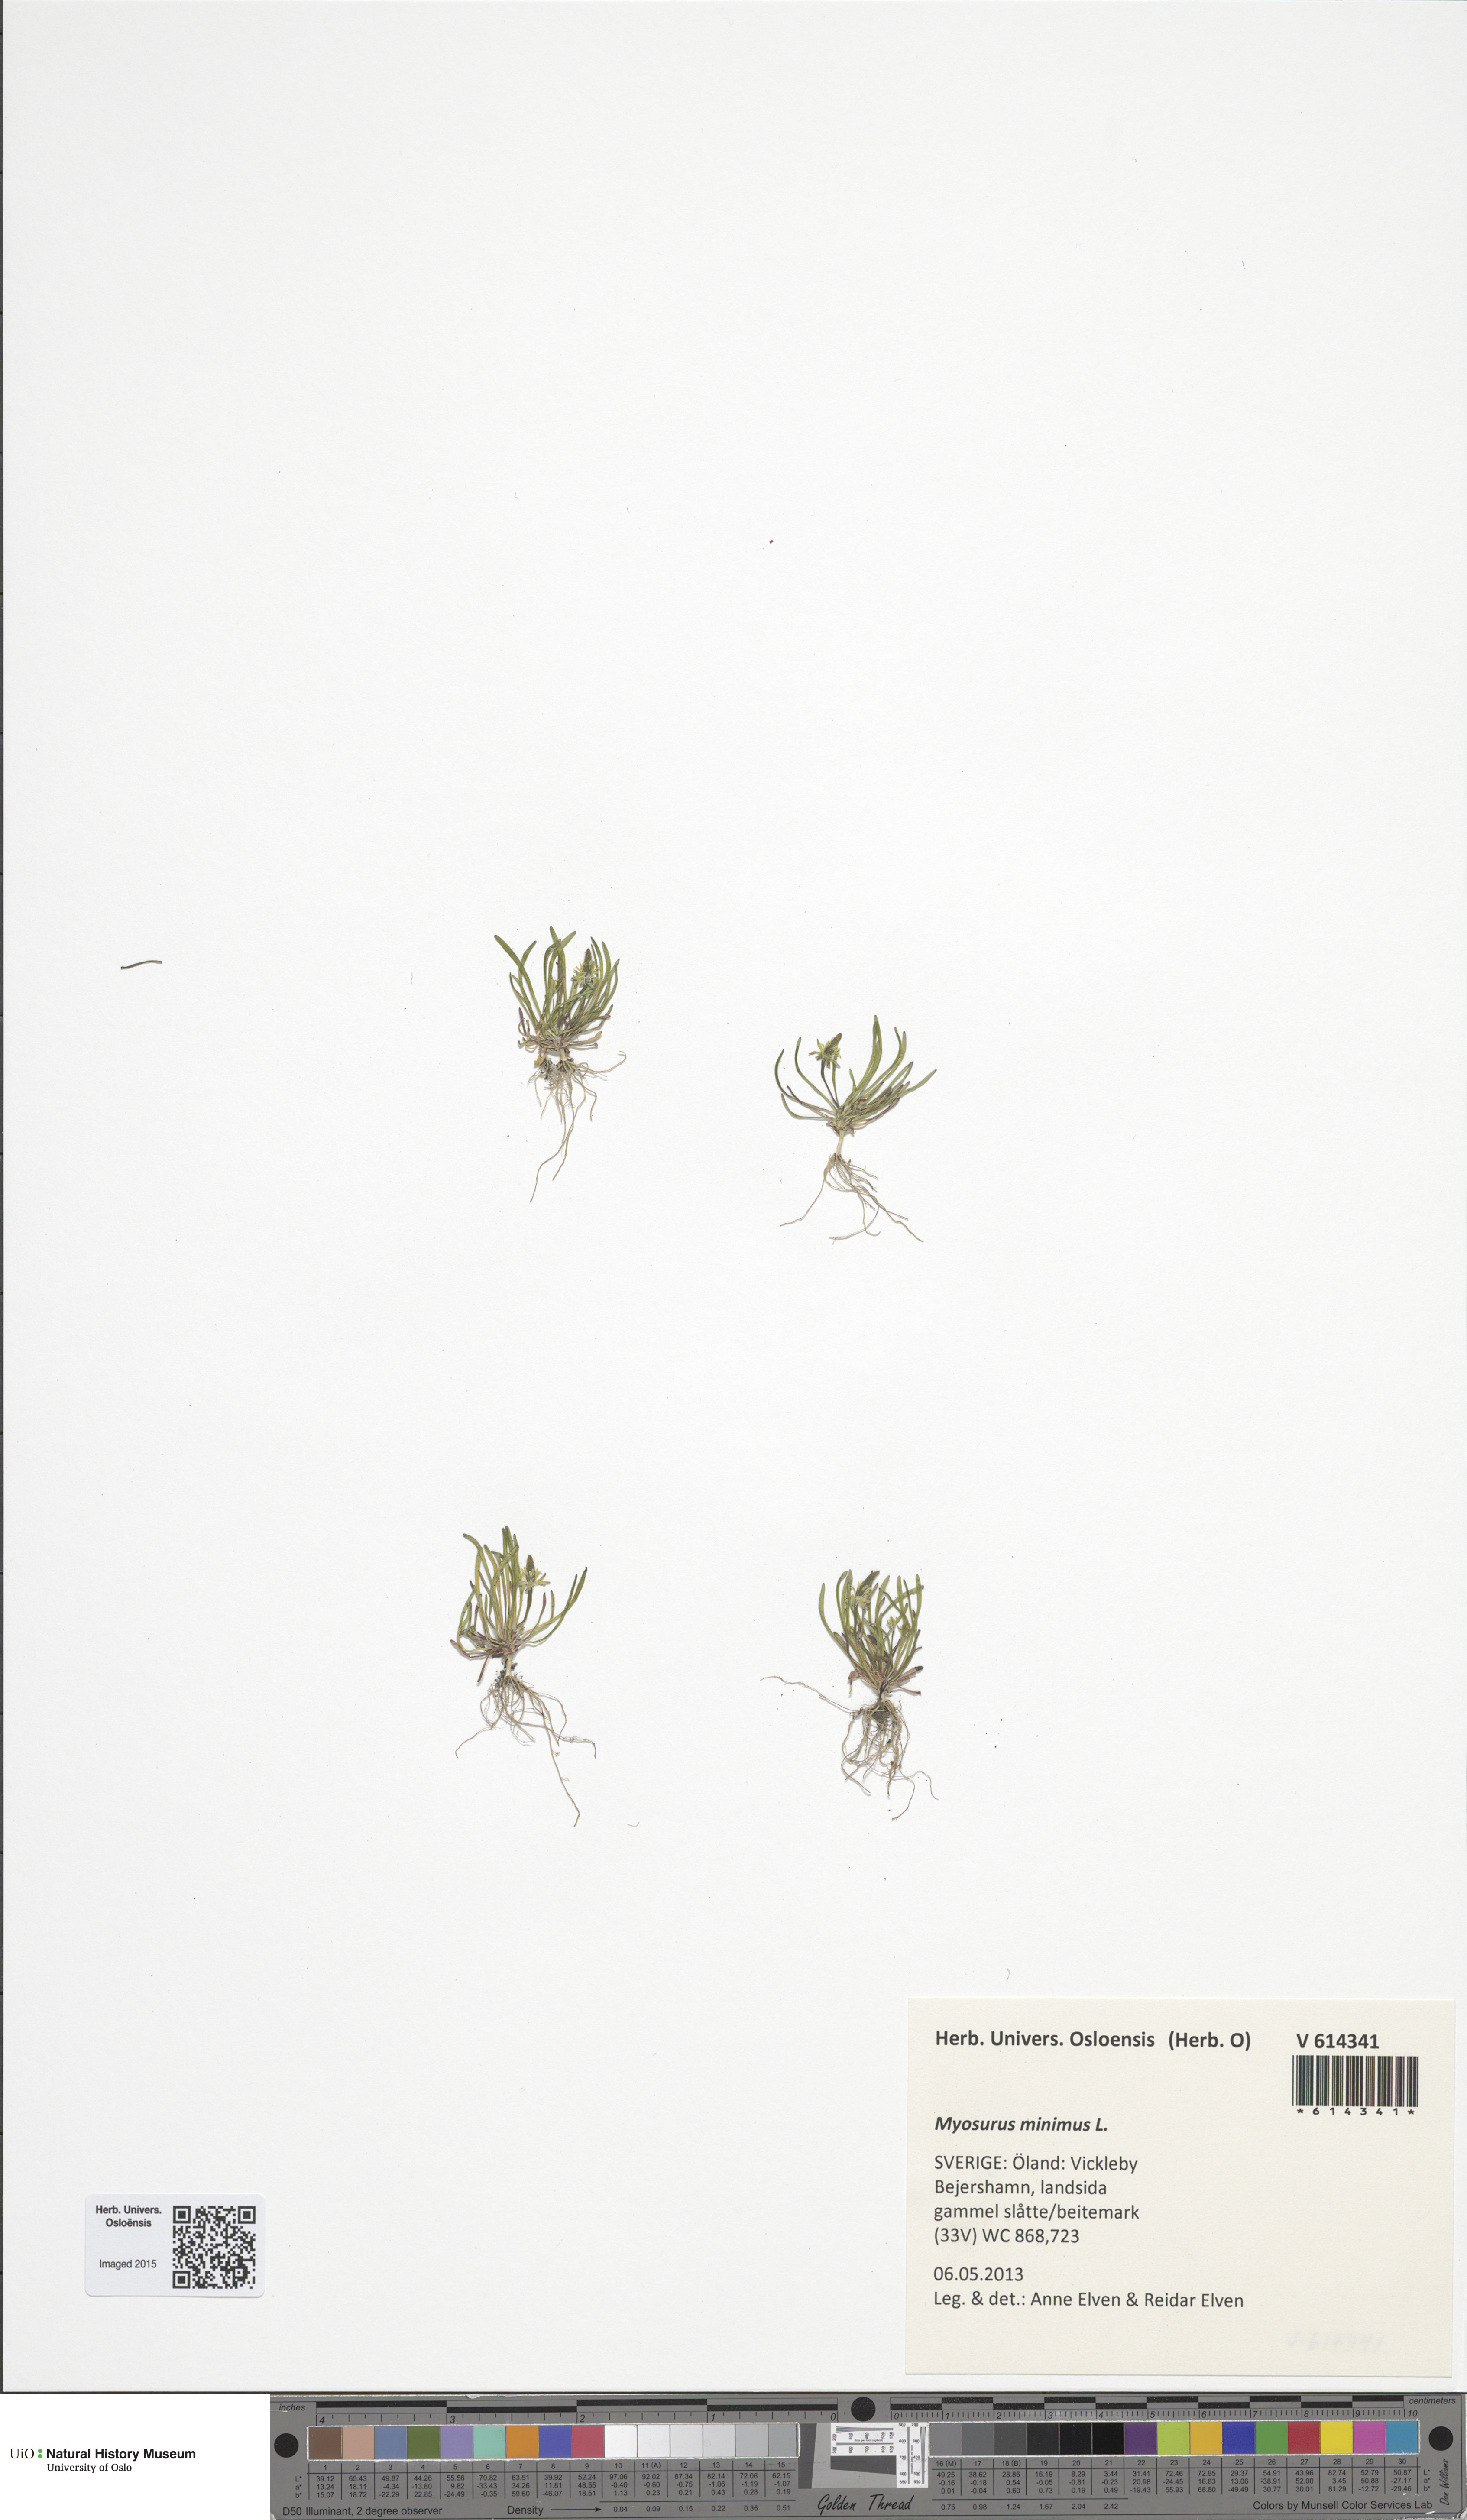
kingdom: Plantae
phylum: Tracheophyta
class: Magnoliopsida
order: Ranunculales
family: Ranunculaceae
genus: Myosurus
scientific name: Myosurus minimus
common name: Mousetail
